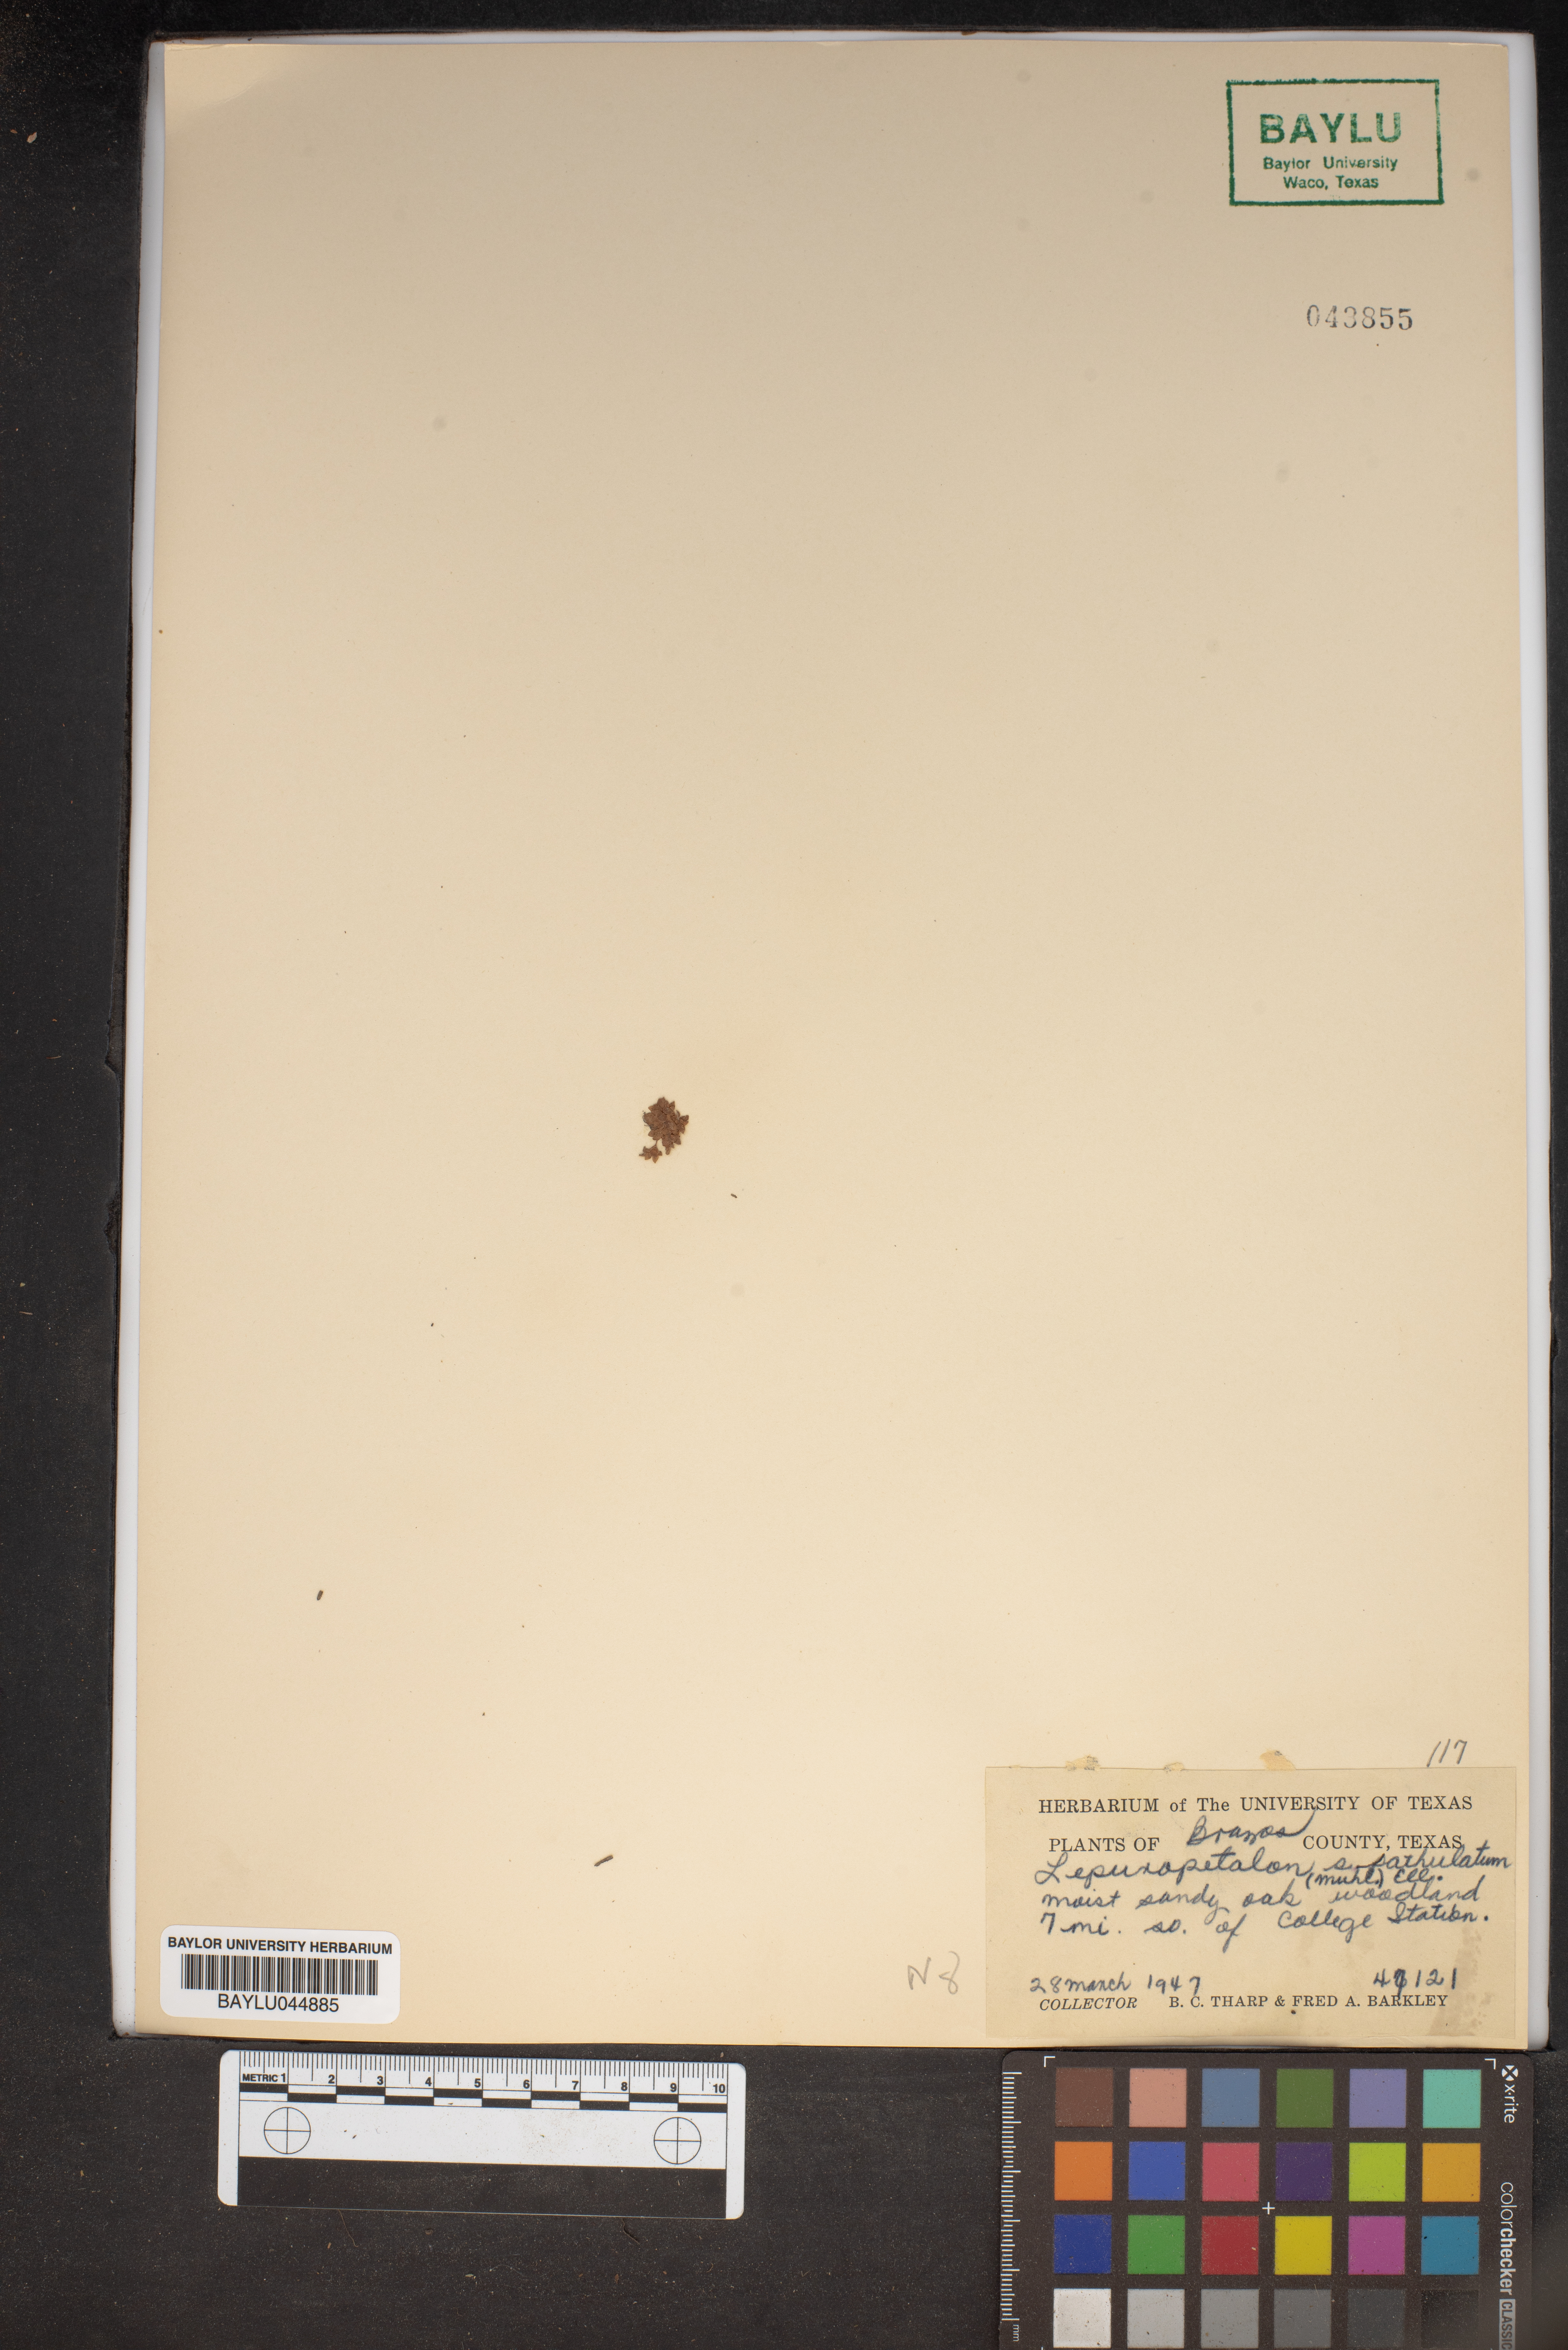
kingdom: Plantae
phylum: Tracheophyta
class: Magnoliopsida
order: Celastrales
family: Parnassiaceae
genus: Lepuropetalon
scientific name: Lepuropetalon spathulatum
